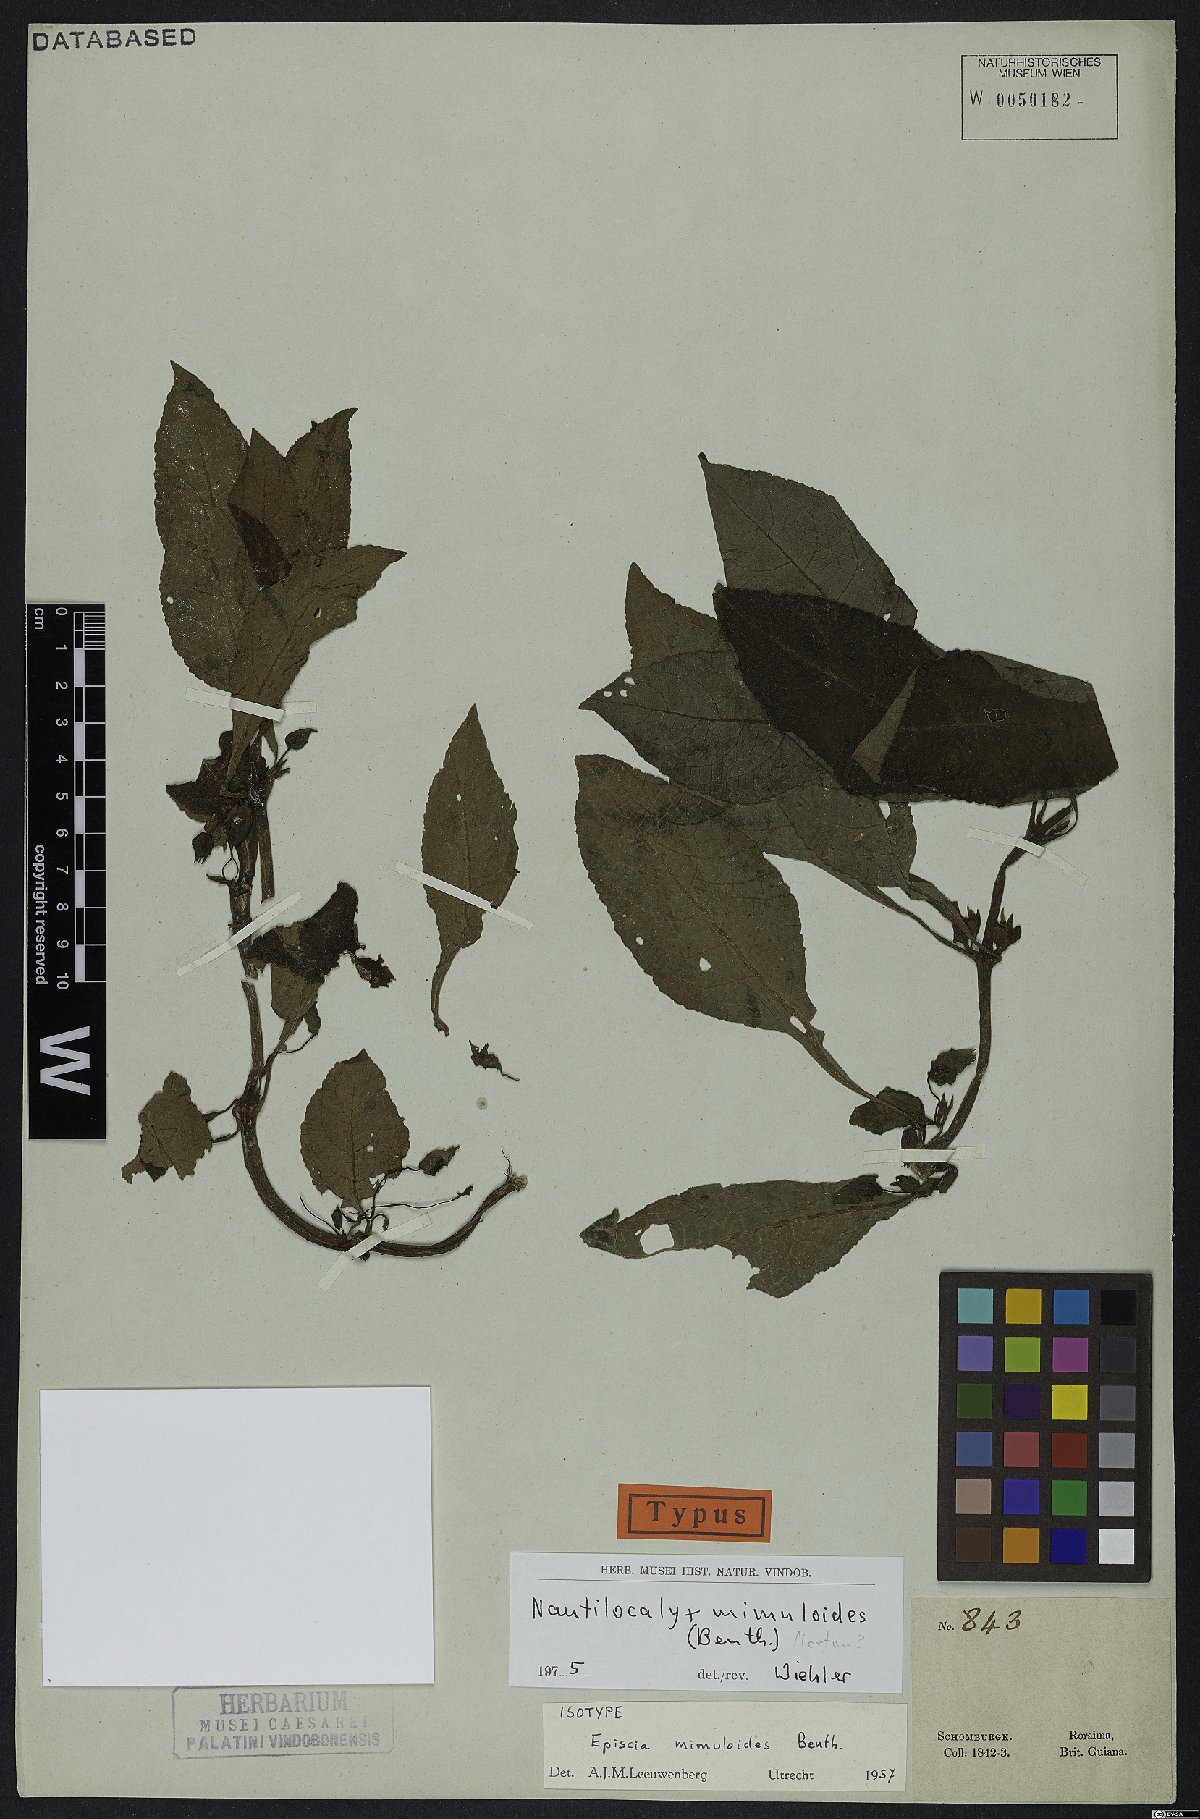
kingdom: Plantae
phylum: Tracheophyta
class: Magnoliopsida
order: Lamiales
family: Gesneriaceae
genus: Nautilocalyx
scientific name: Nautilocalyx mimuloides
